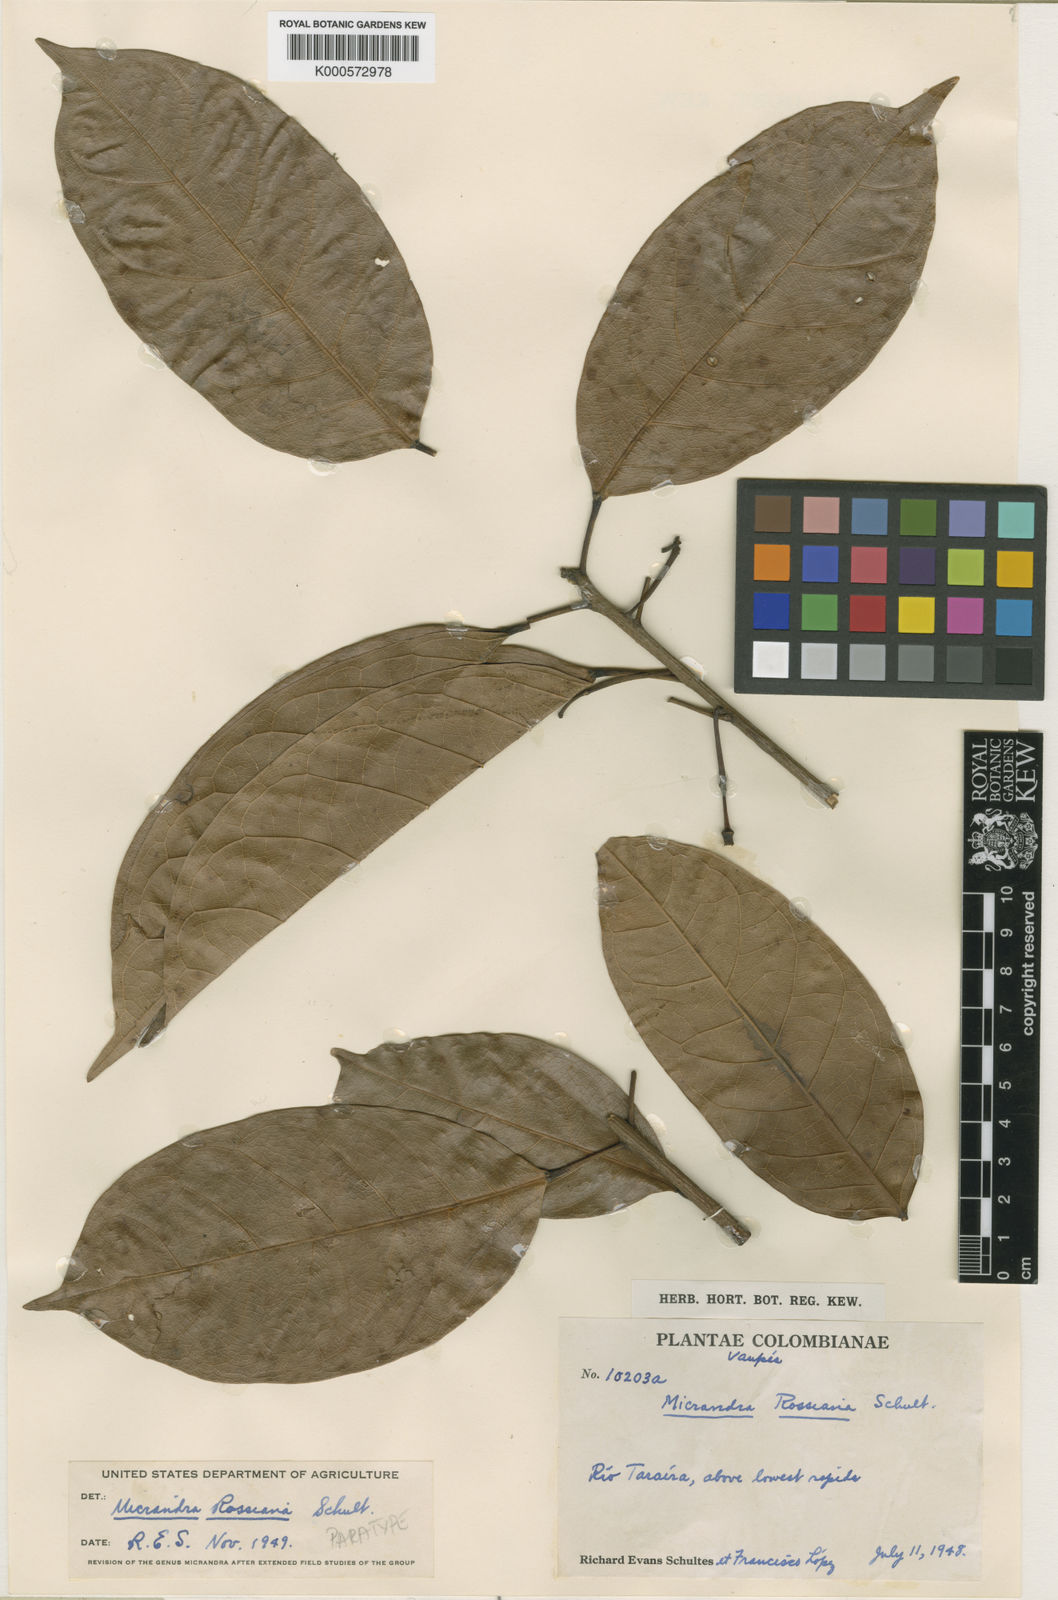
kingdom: Plantae
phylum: Tracheophyta
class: Magnoliopsida
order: Malpighiales
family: Euphorbiaceae
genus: Micrandra
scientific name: Micrandra rossiana
